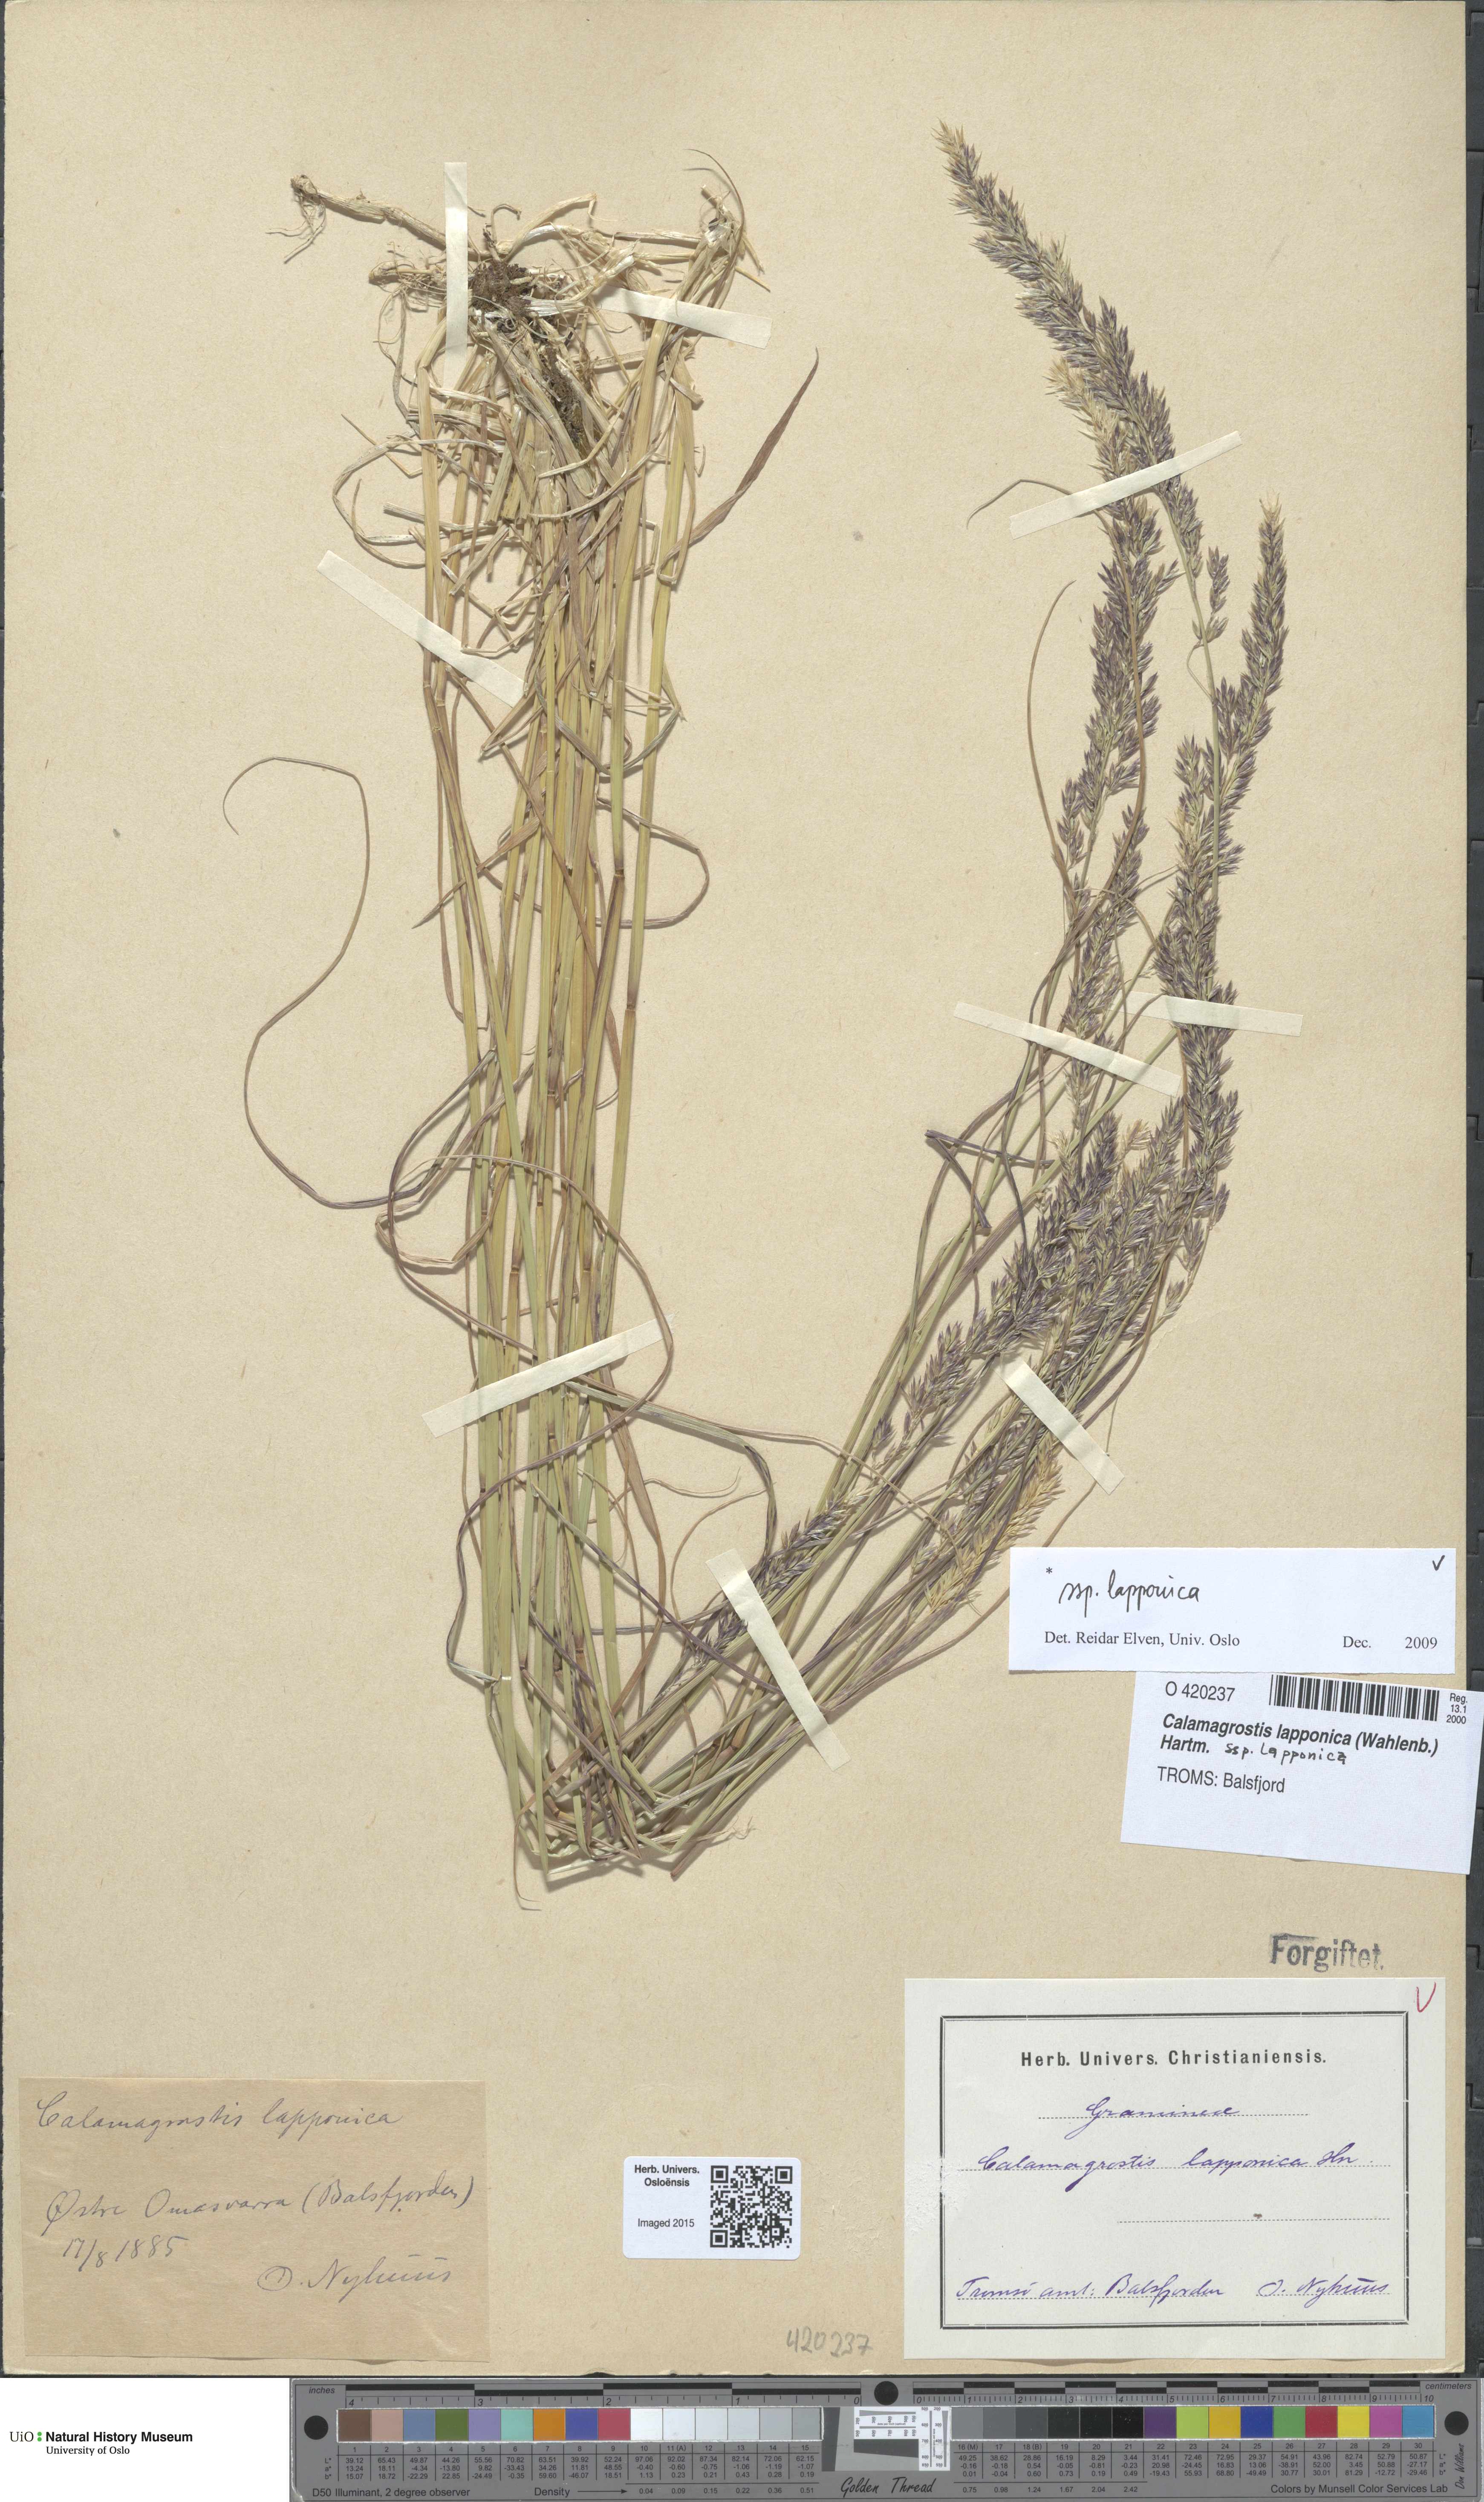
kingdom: Plantae
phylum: Tracheophyta
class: Liliopsida
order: Poales
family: Poaceae
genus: Calamagrostis
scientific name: Calamagrostis lapponica
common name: Lapland reedgrass
